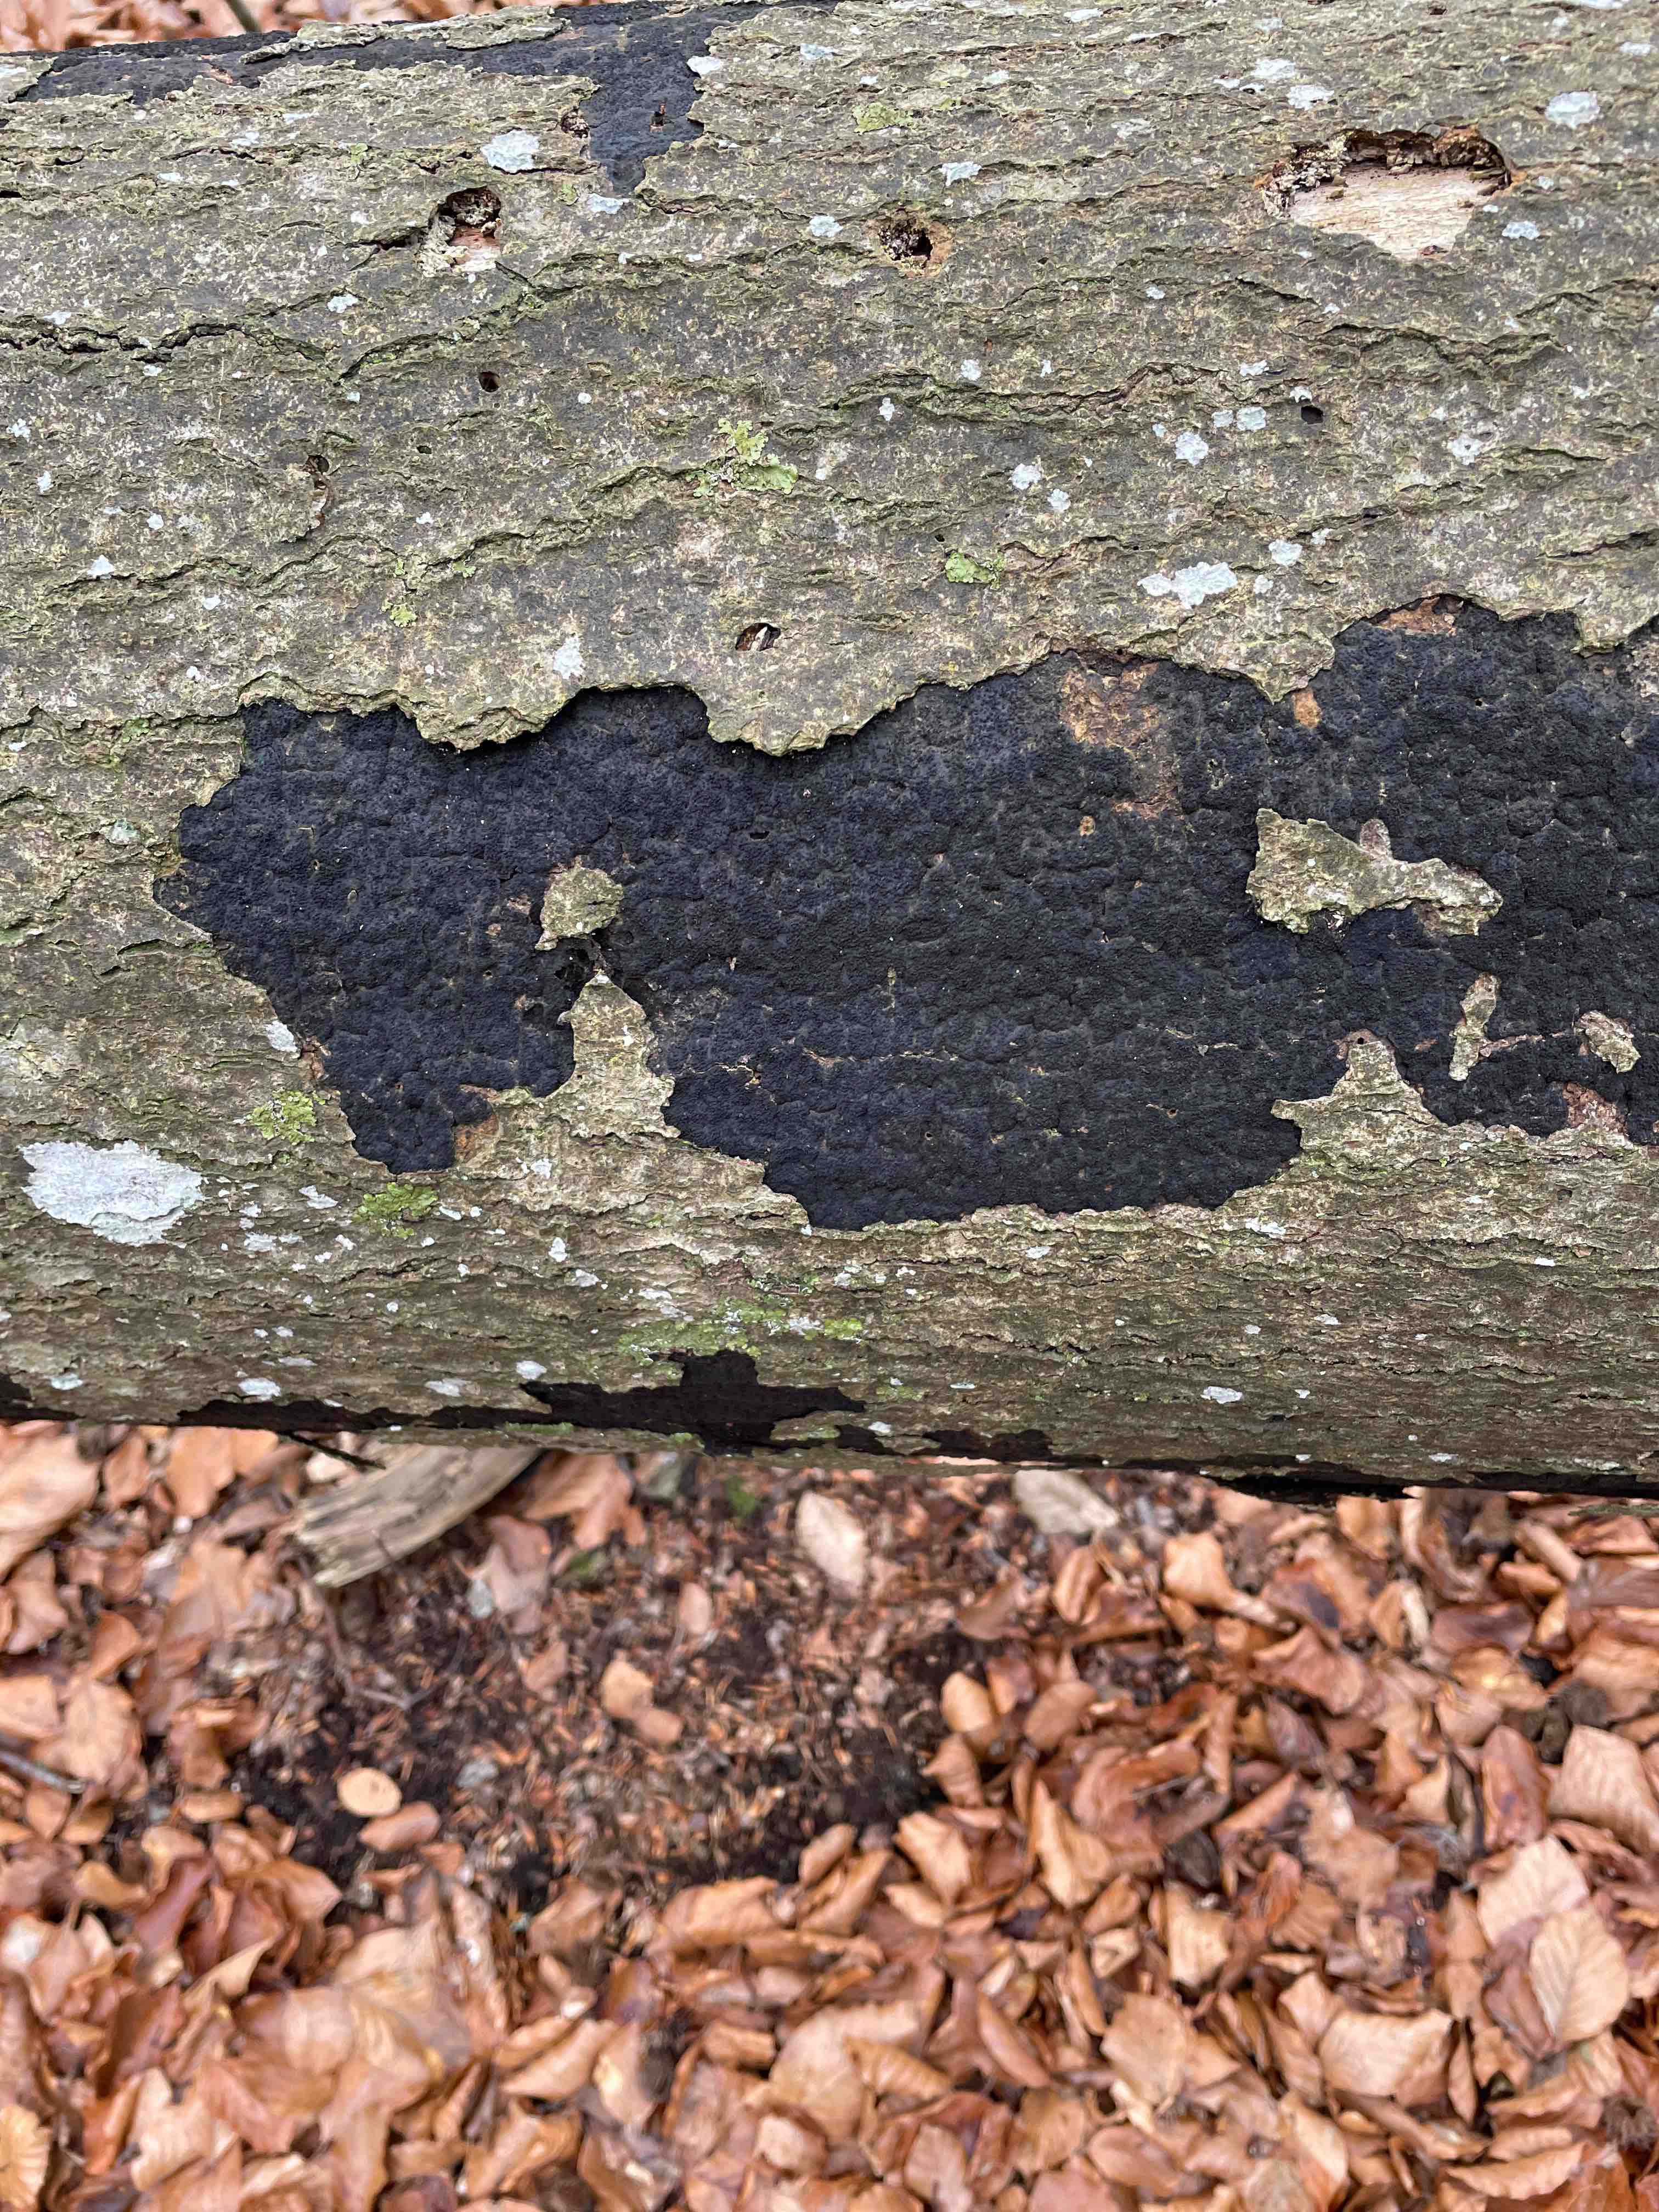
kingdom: Fungi
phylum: Ascomycota
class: Sordariomycetes
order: Xylariales
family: Diatrypaceae
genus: Eutypa
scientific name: Eutypa spinosa
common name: grov kulskorpe
